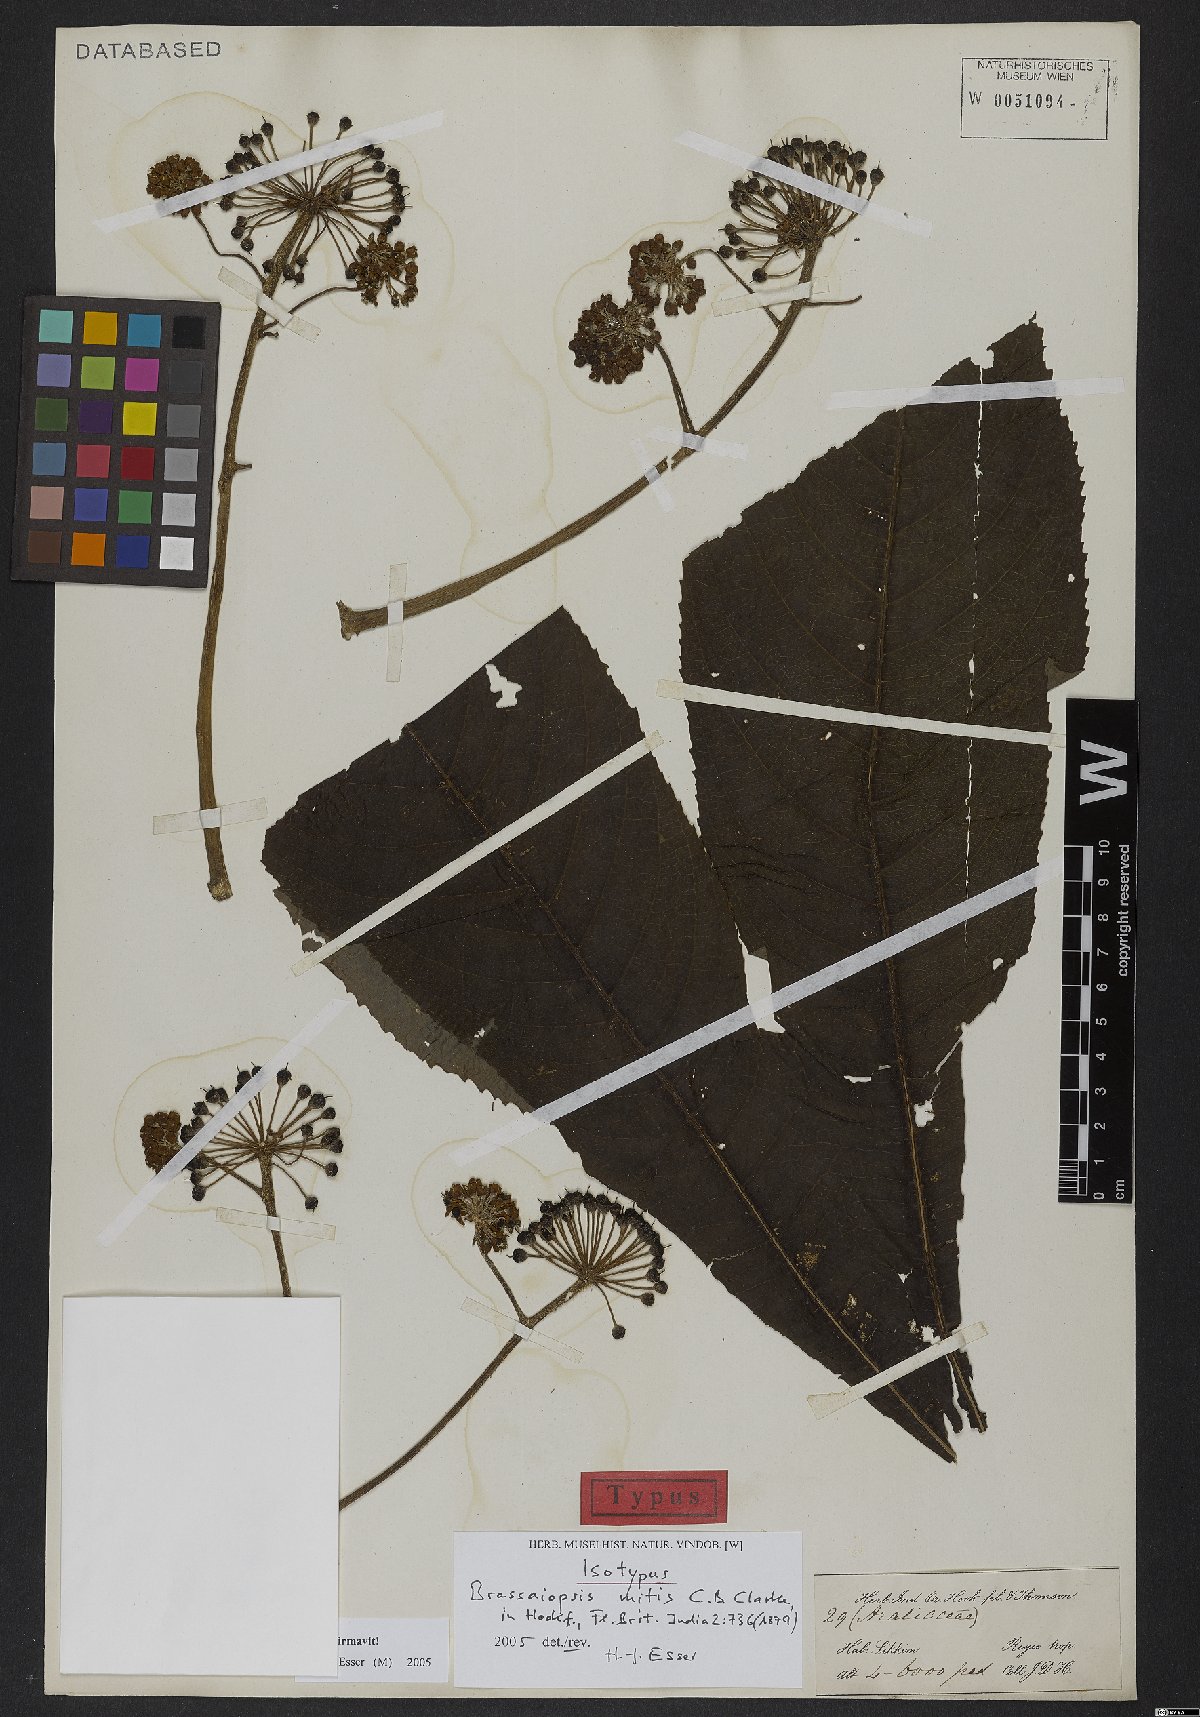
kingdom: Plantae
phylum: Tracheophyta
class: Magnoliopsida
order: Apiales
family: Araliaceae
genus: Brassaiopsis
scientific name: Brassaiopsis mitis
